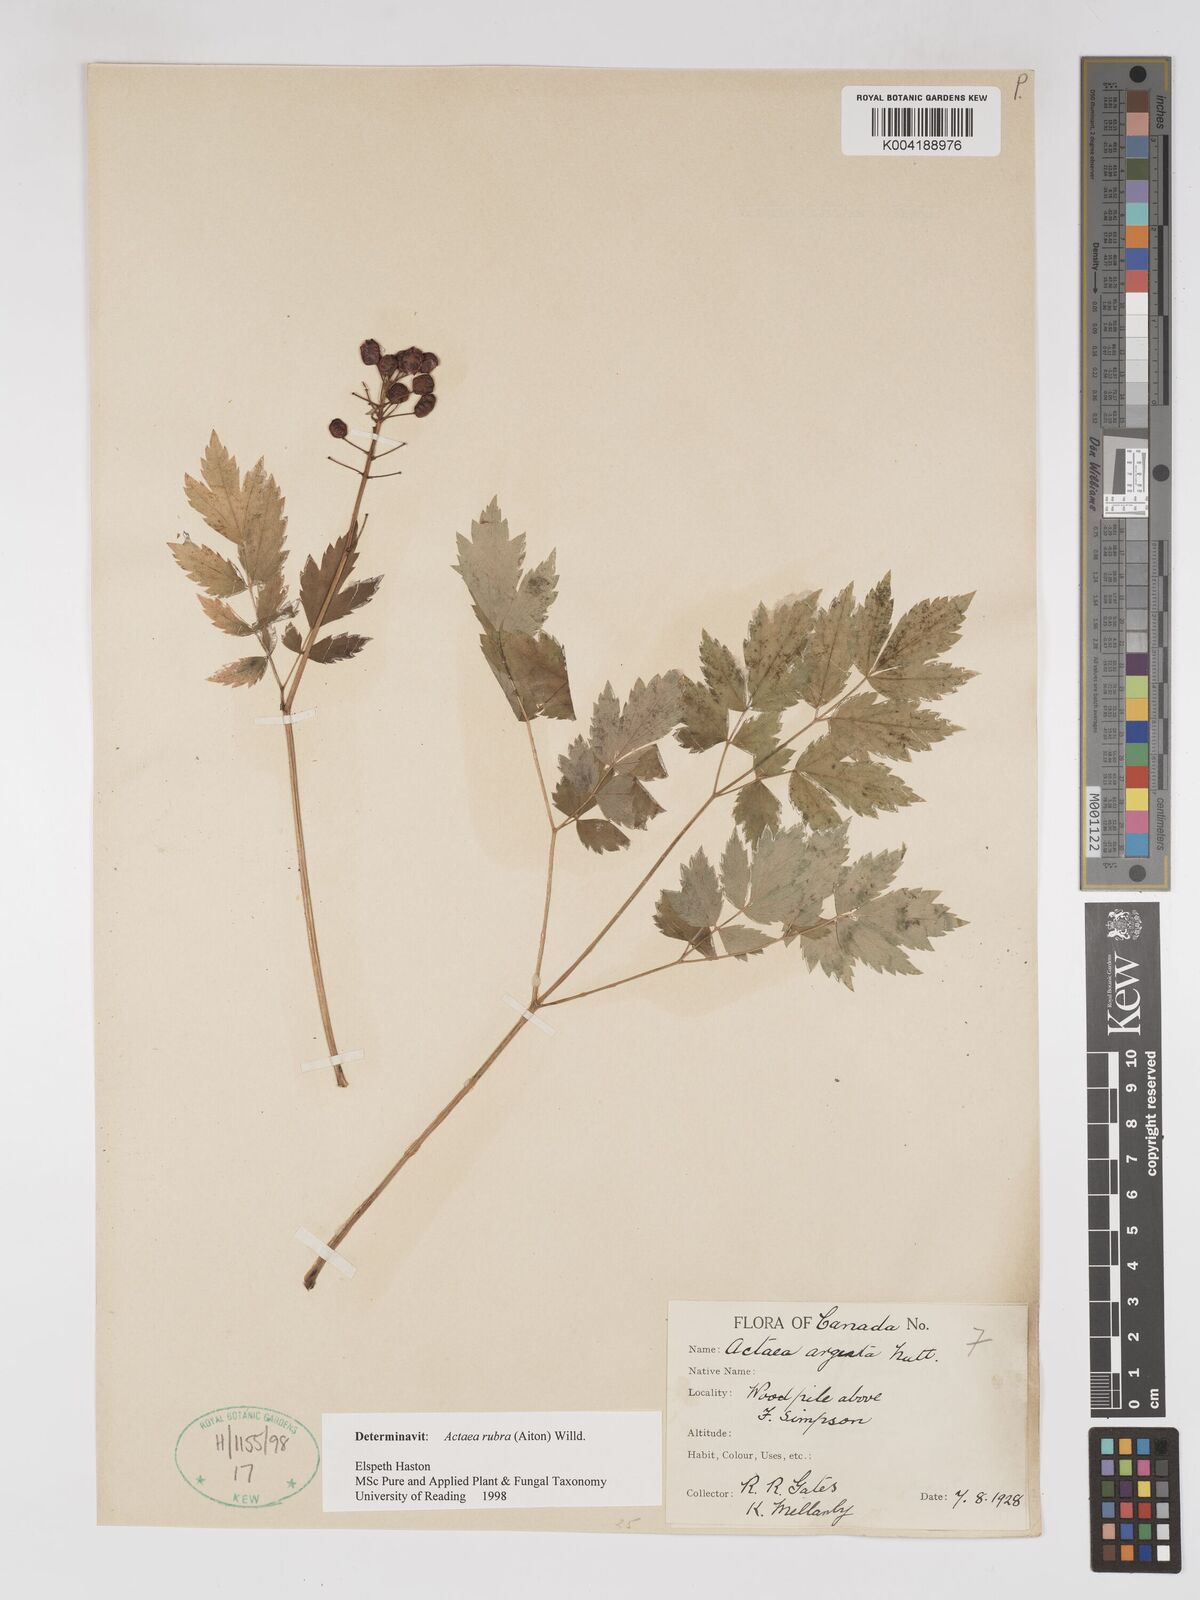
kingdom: Plantae
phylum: Tracheophyta
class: Magnoliopsida
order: Ranunculales
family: Ranunculaceae
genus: Actaea
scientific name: Actaea rubra
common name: Red baneberry
